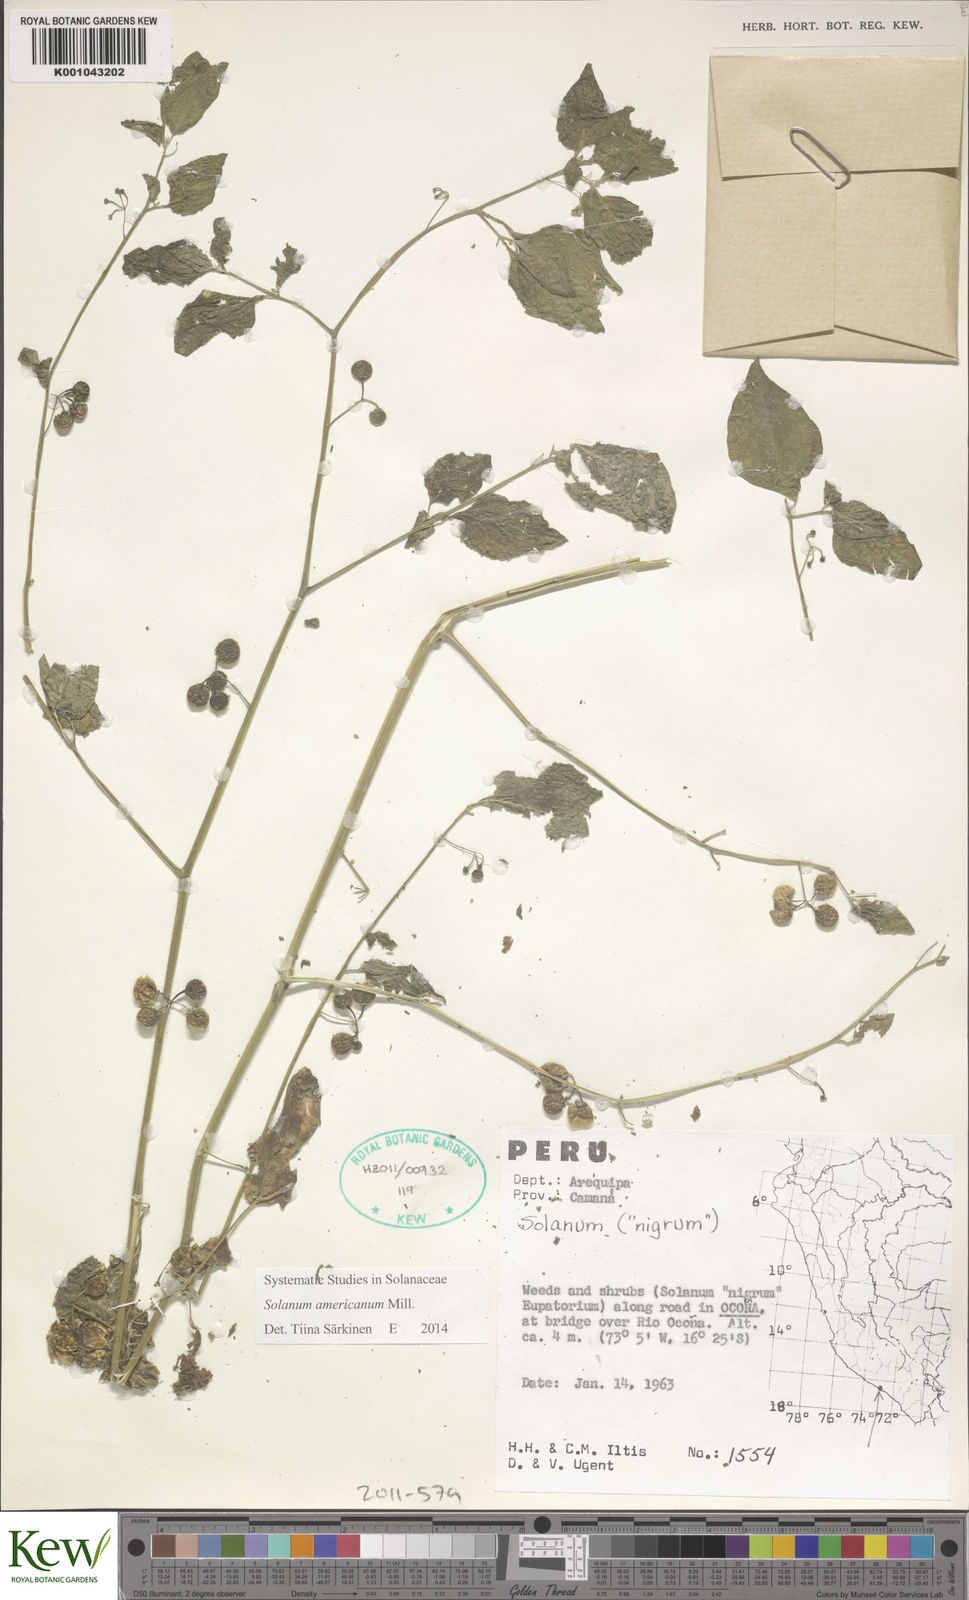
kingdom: Plantae
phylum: Tracheophyta
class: Magnoliopsida
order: Solanales
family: Solanaceae
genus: Solanum
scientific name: Solanum americanum
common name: American black nightshade
